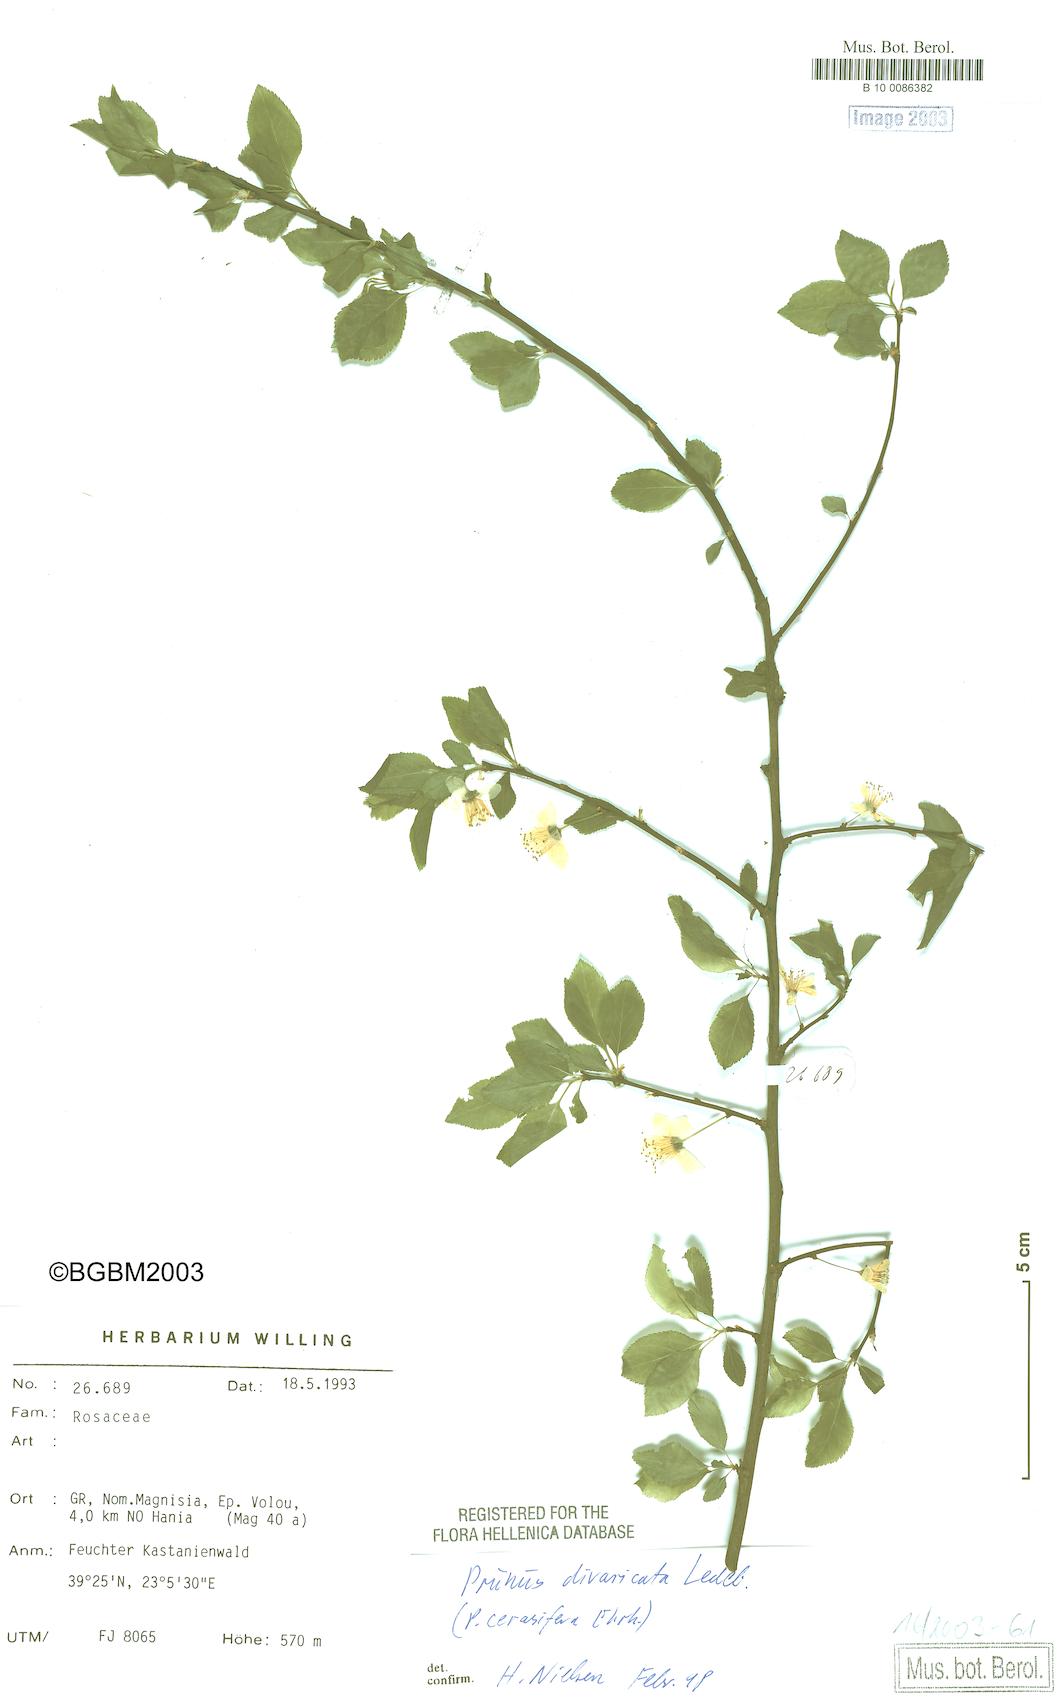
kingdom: Plantae
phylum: Tracheophyta
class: Magnoliopsida
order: Rosales
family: Rosaceae
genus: Prunus
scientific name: Prunus
